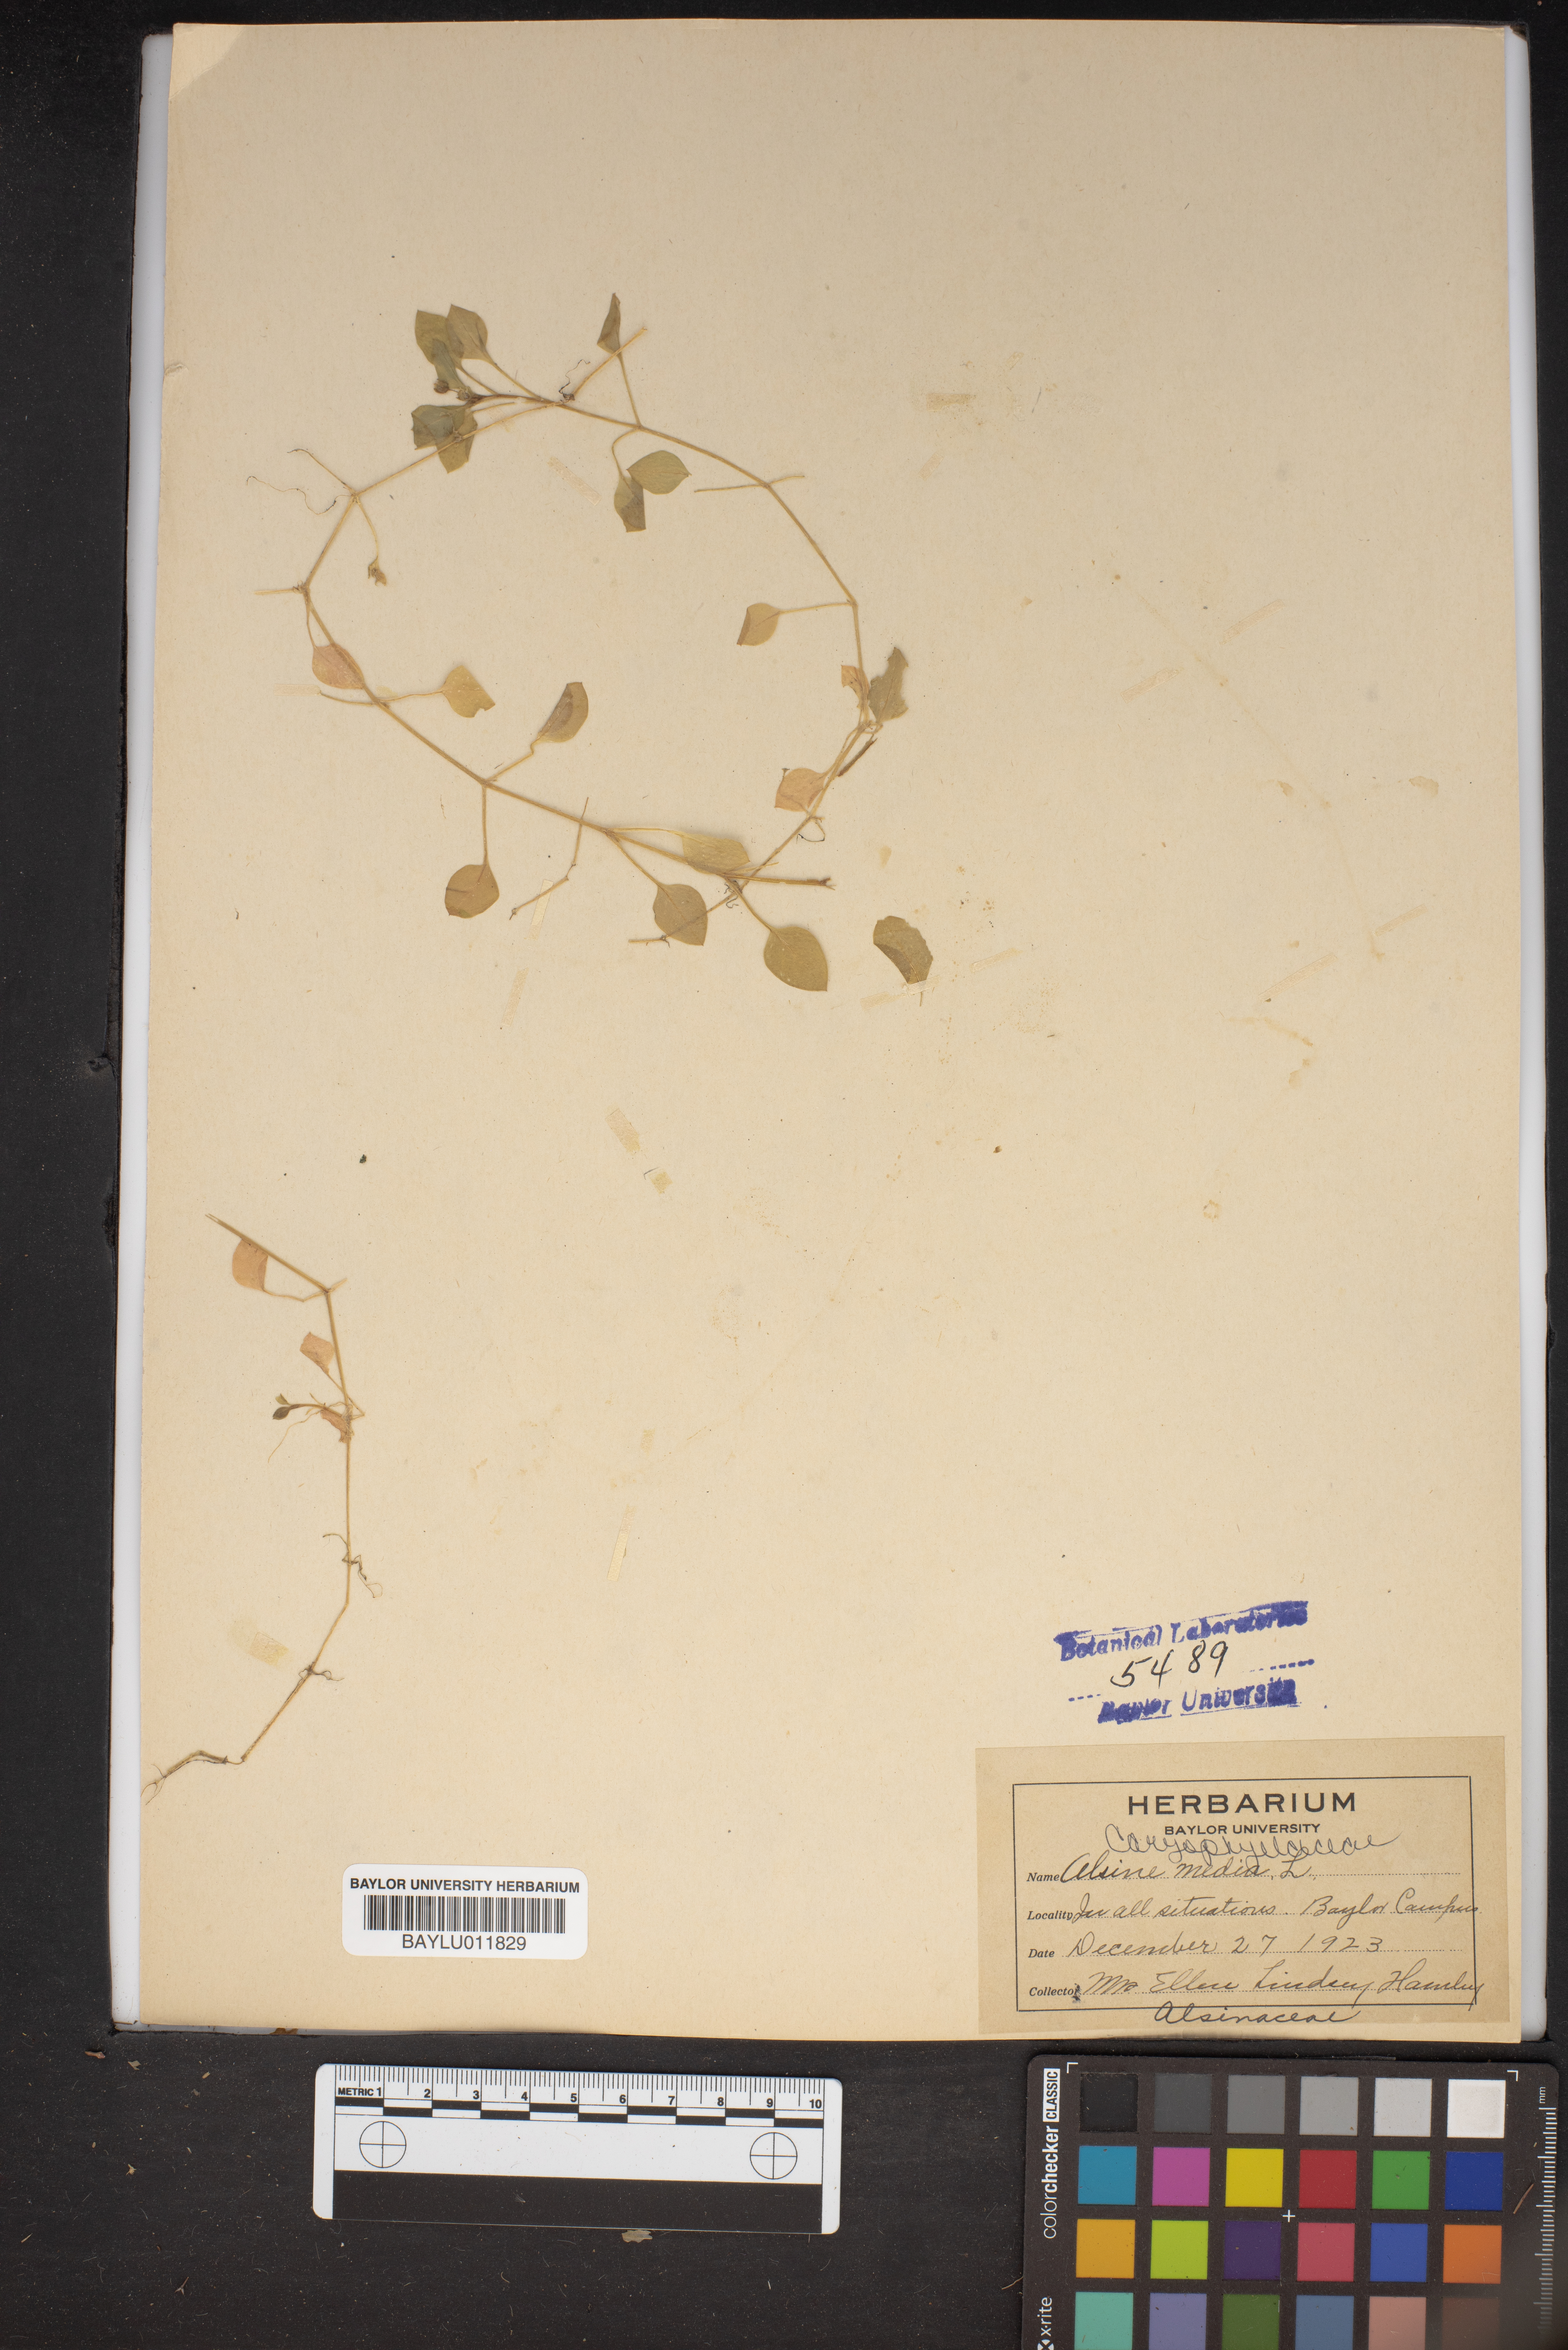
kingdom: Plantae
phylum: Tracheophyta
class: Magnoliopsida
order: Caryophyllales
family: Caryophyllaceae
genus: Stellaria
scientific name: Stellaria media
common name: Common chickweed
